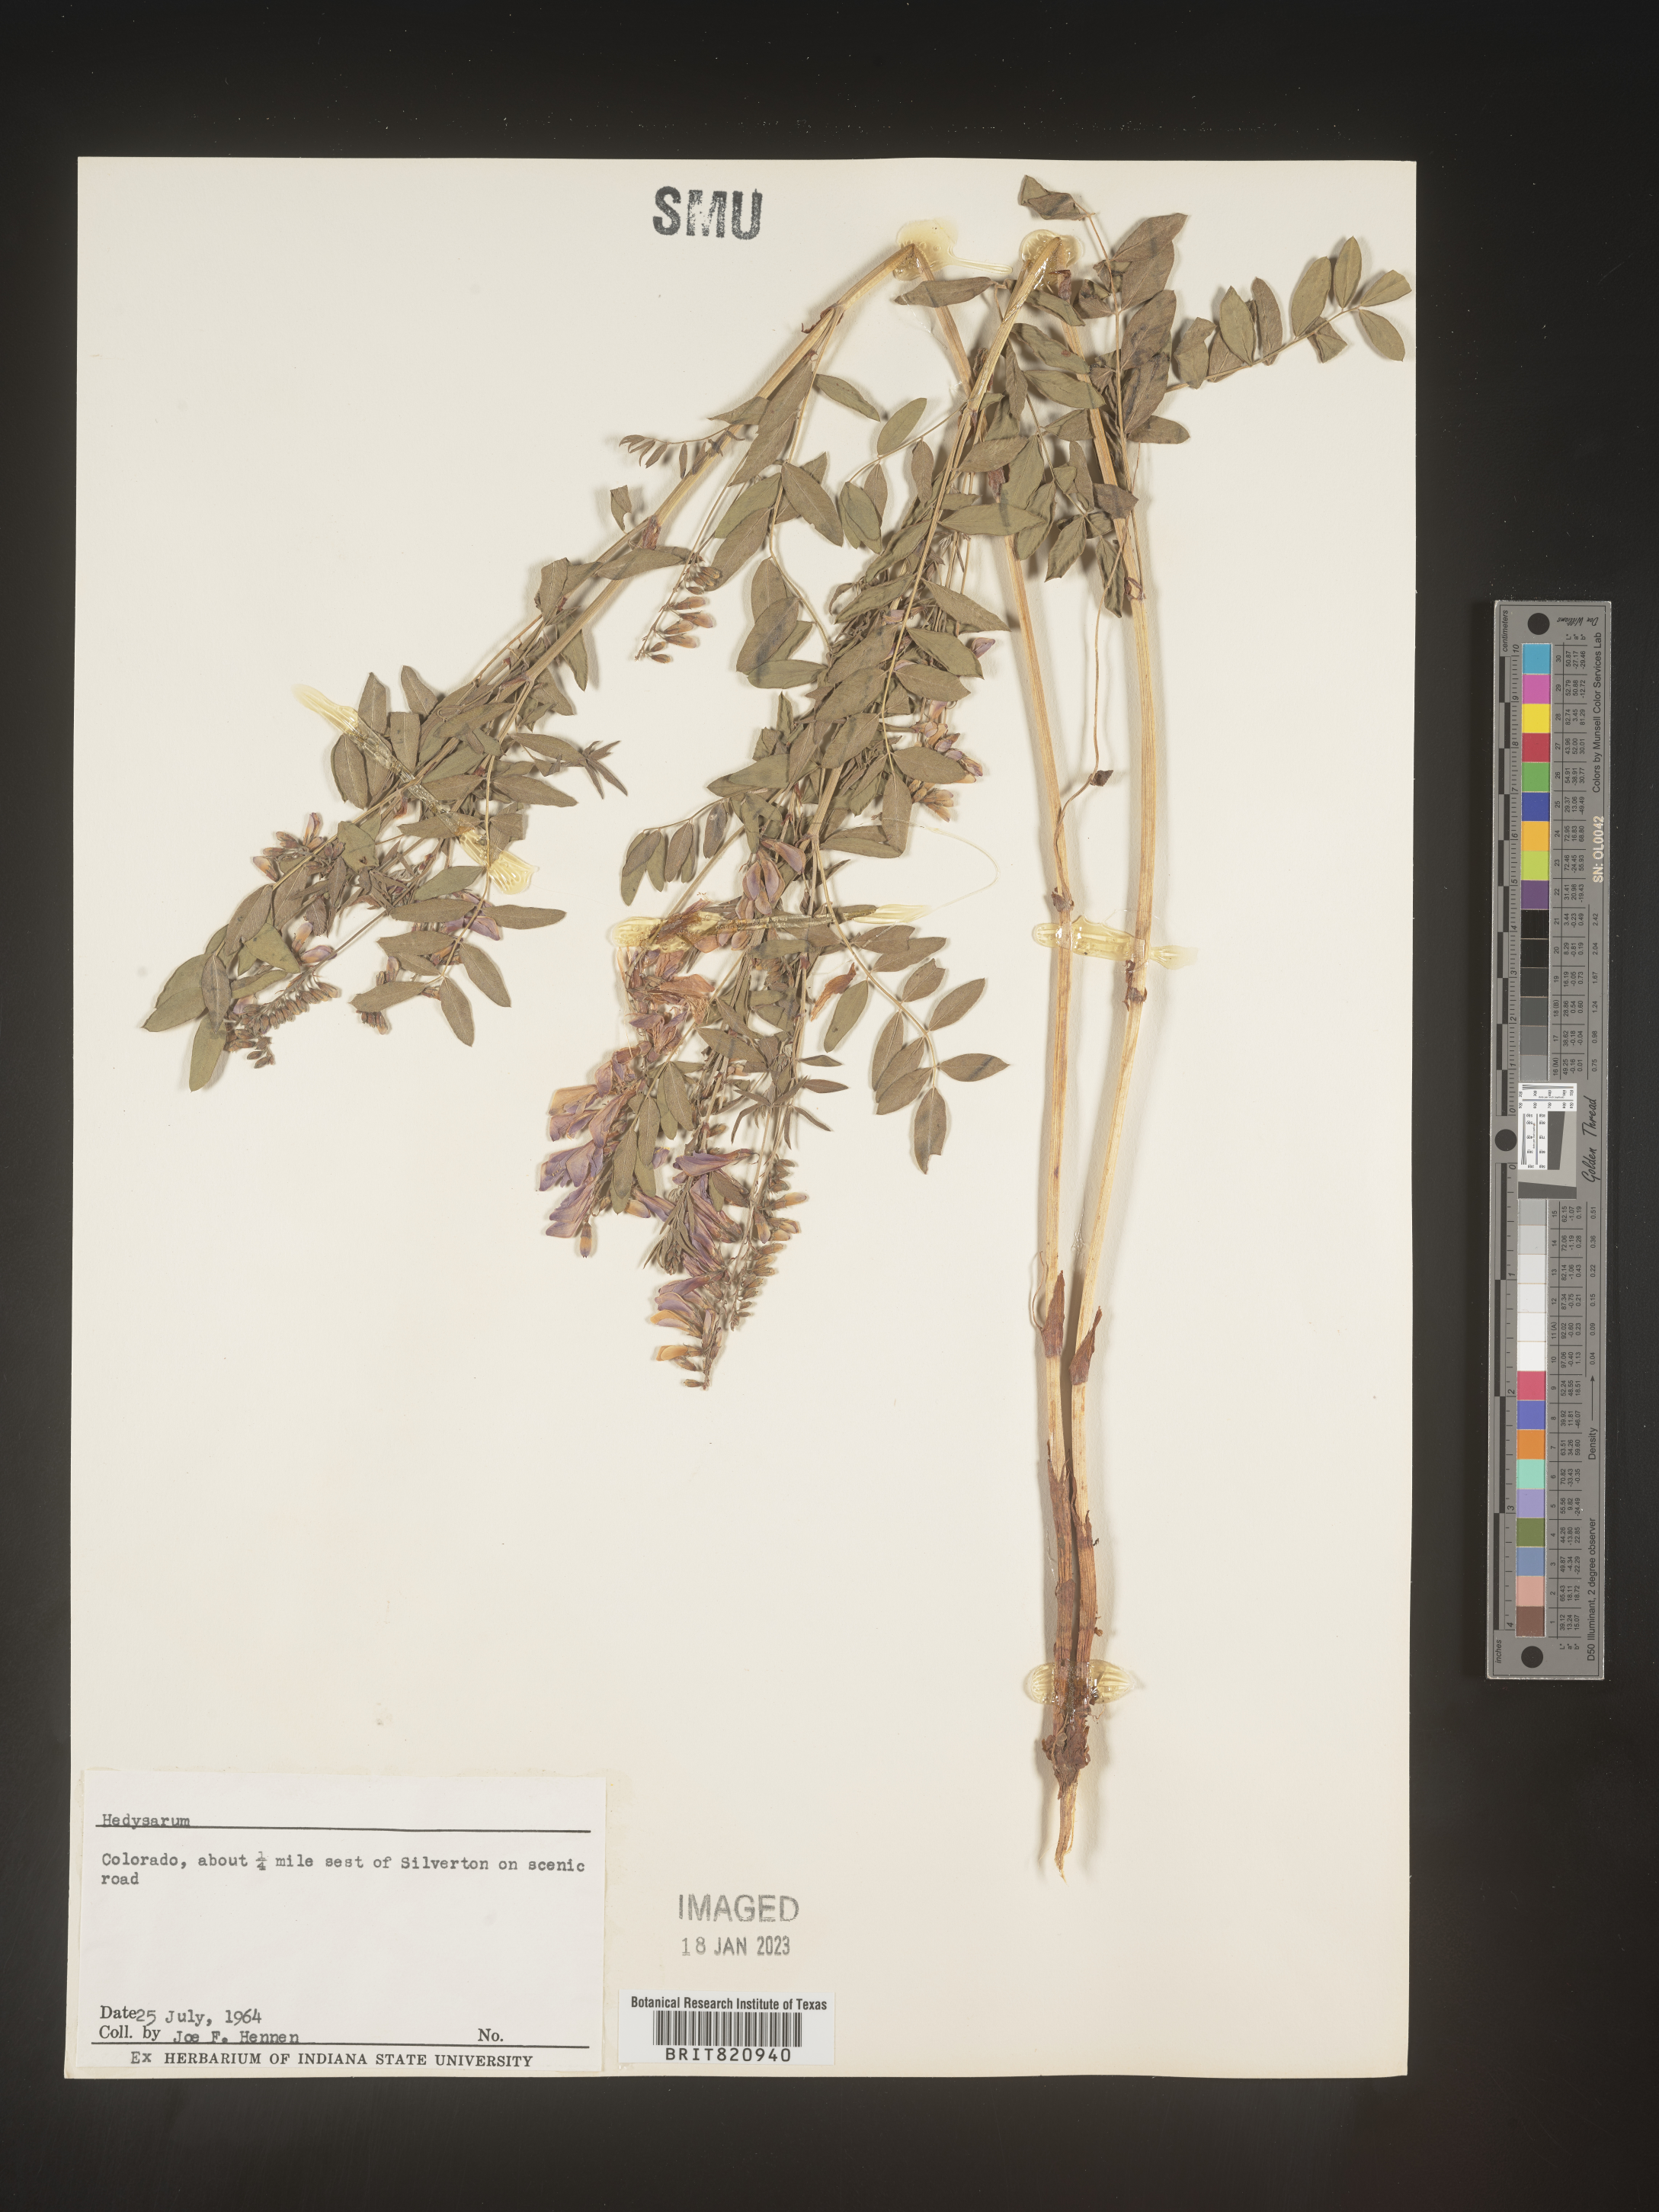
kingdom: Plantae
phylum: Tracheophyta
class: Magnoliopsida
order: Fabales
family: Fabaceae
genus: Hedysarum
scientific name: Hedysarum boreale
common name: Northern sweet-vetch
